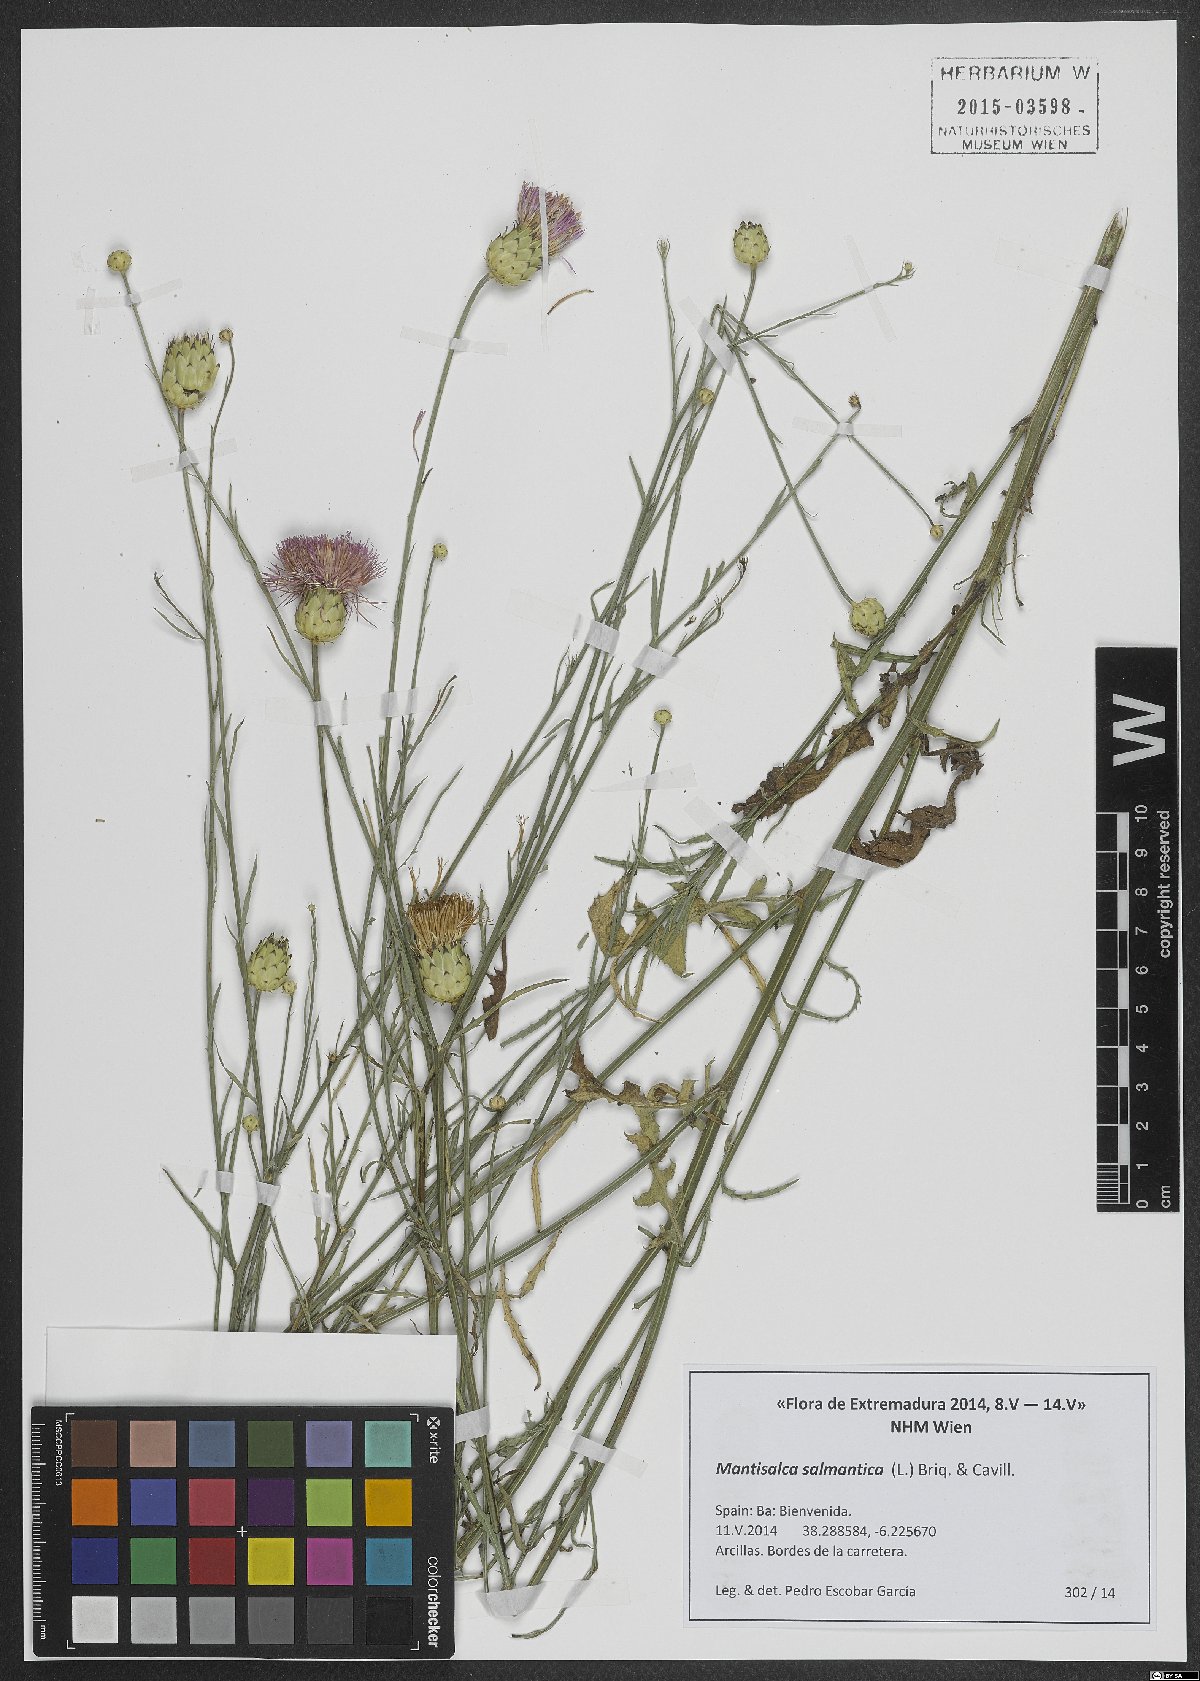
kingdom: Plantae
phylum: Tracheophyta
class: Magnoliopsida
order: Asterales
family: Asteraceae
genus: Mantisalca
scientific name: Mantisalca salmantica
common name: Dagger flower
